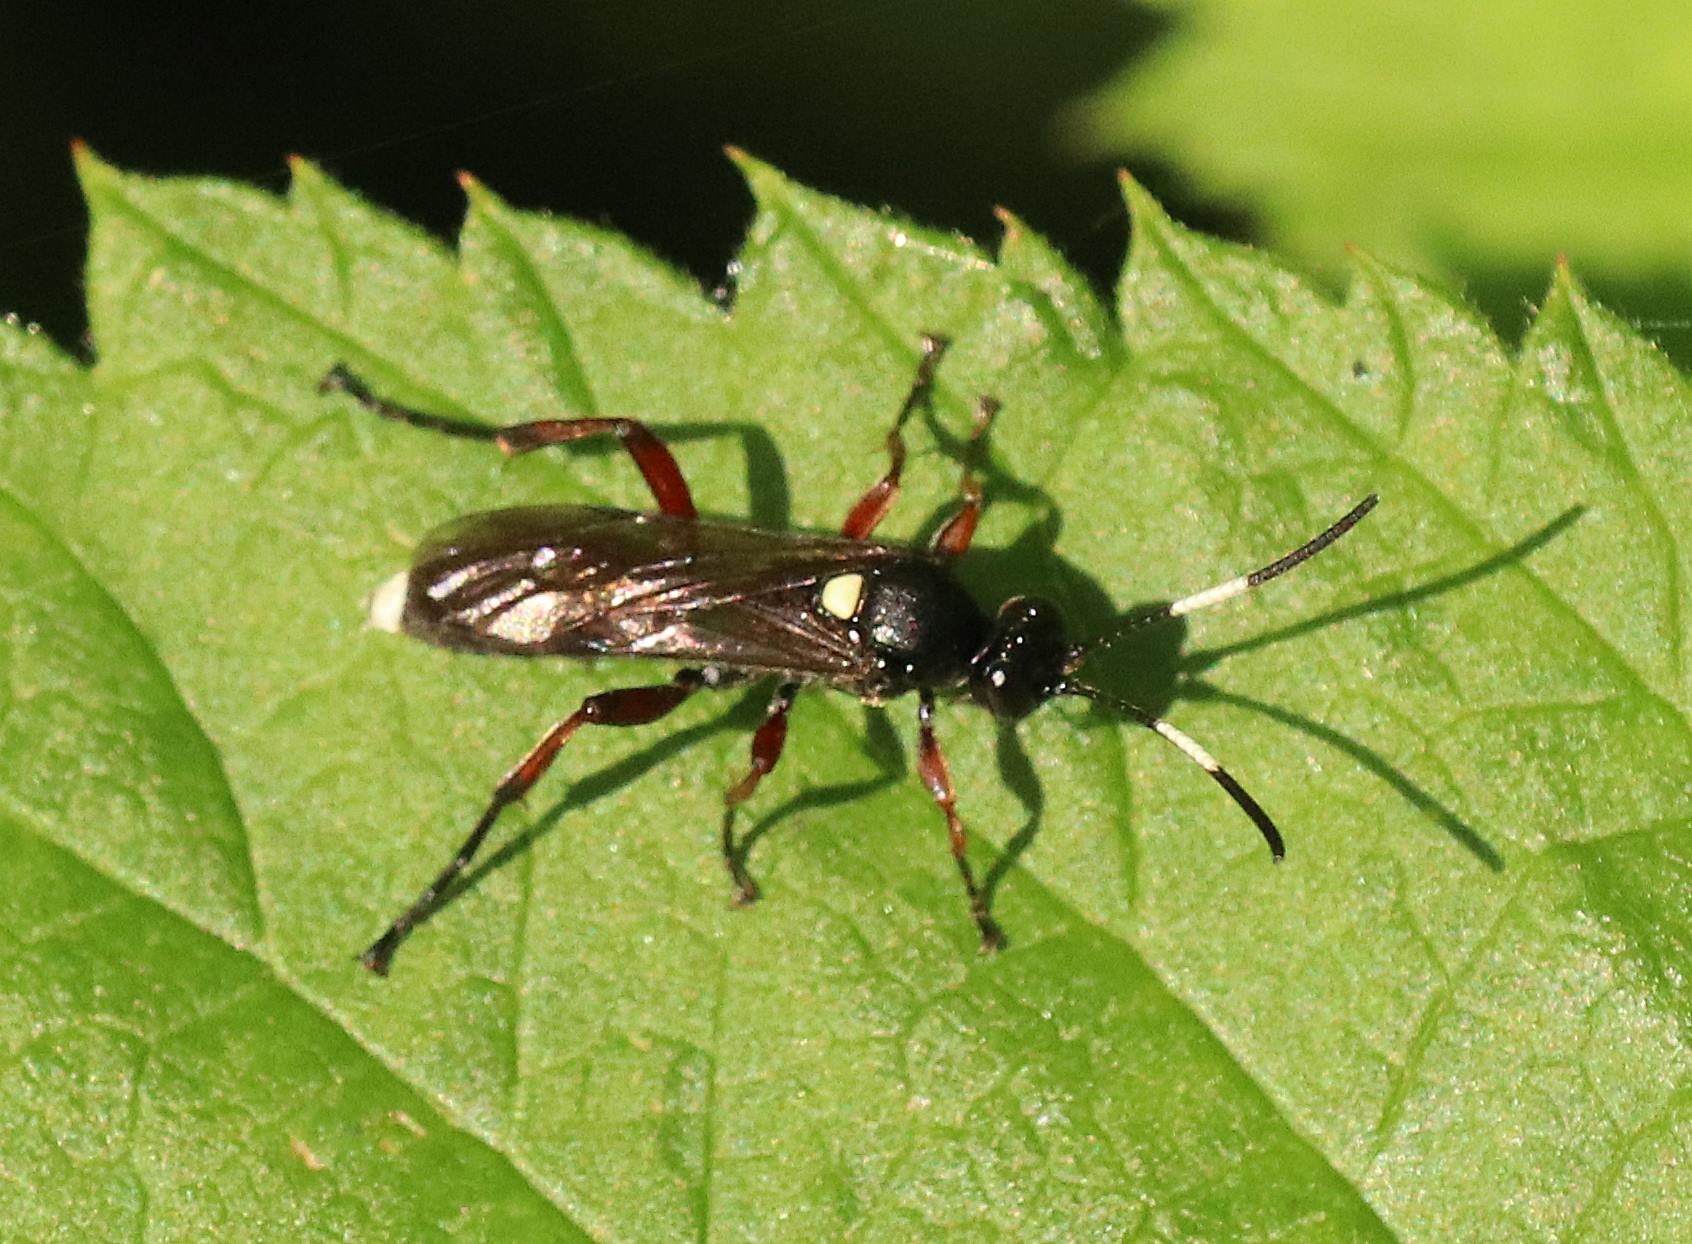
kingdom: Animalia
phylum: Arthropoda
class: Insecta
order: Hymenoptera
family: Ichneumonidae
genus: Vulgichneumon
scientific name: Vulgichneumon saturatorius
